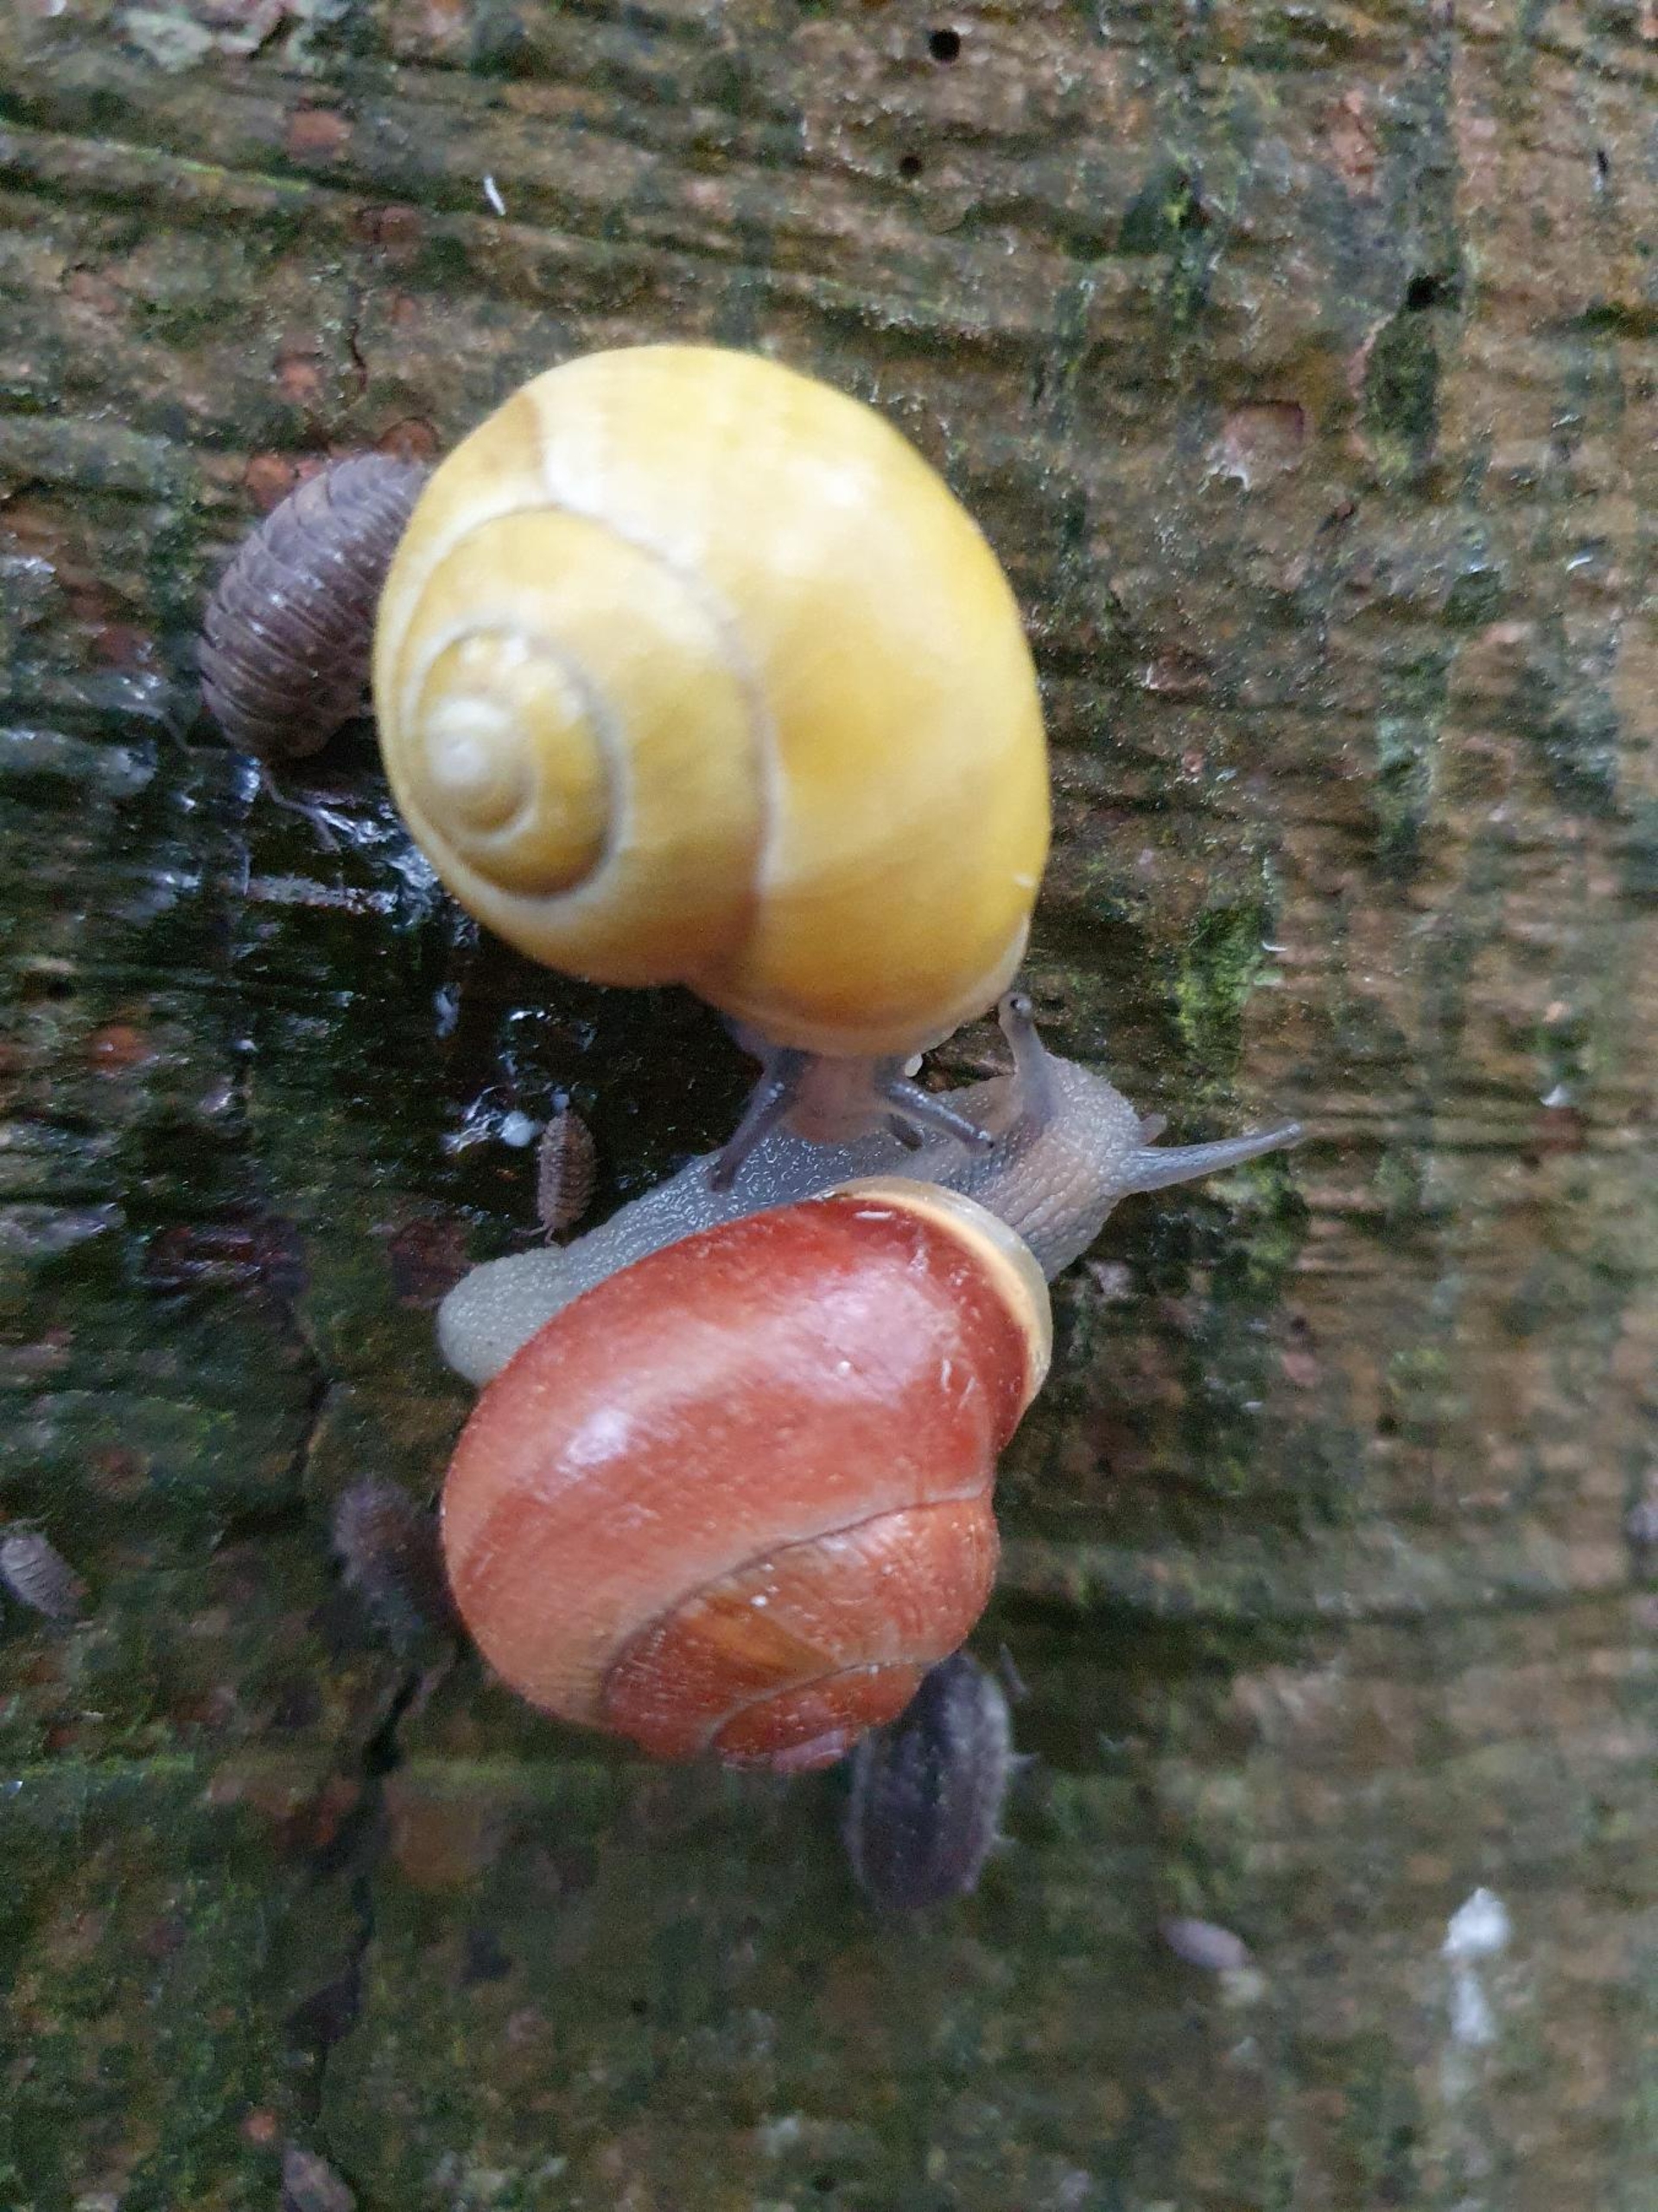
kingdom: Animalia
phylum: Mollusca
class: Gastropoda
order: Stylommatophora
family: Helicidae
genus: Cepaea
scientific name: Cepaea hortensis
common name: Havesnegl
